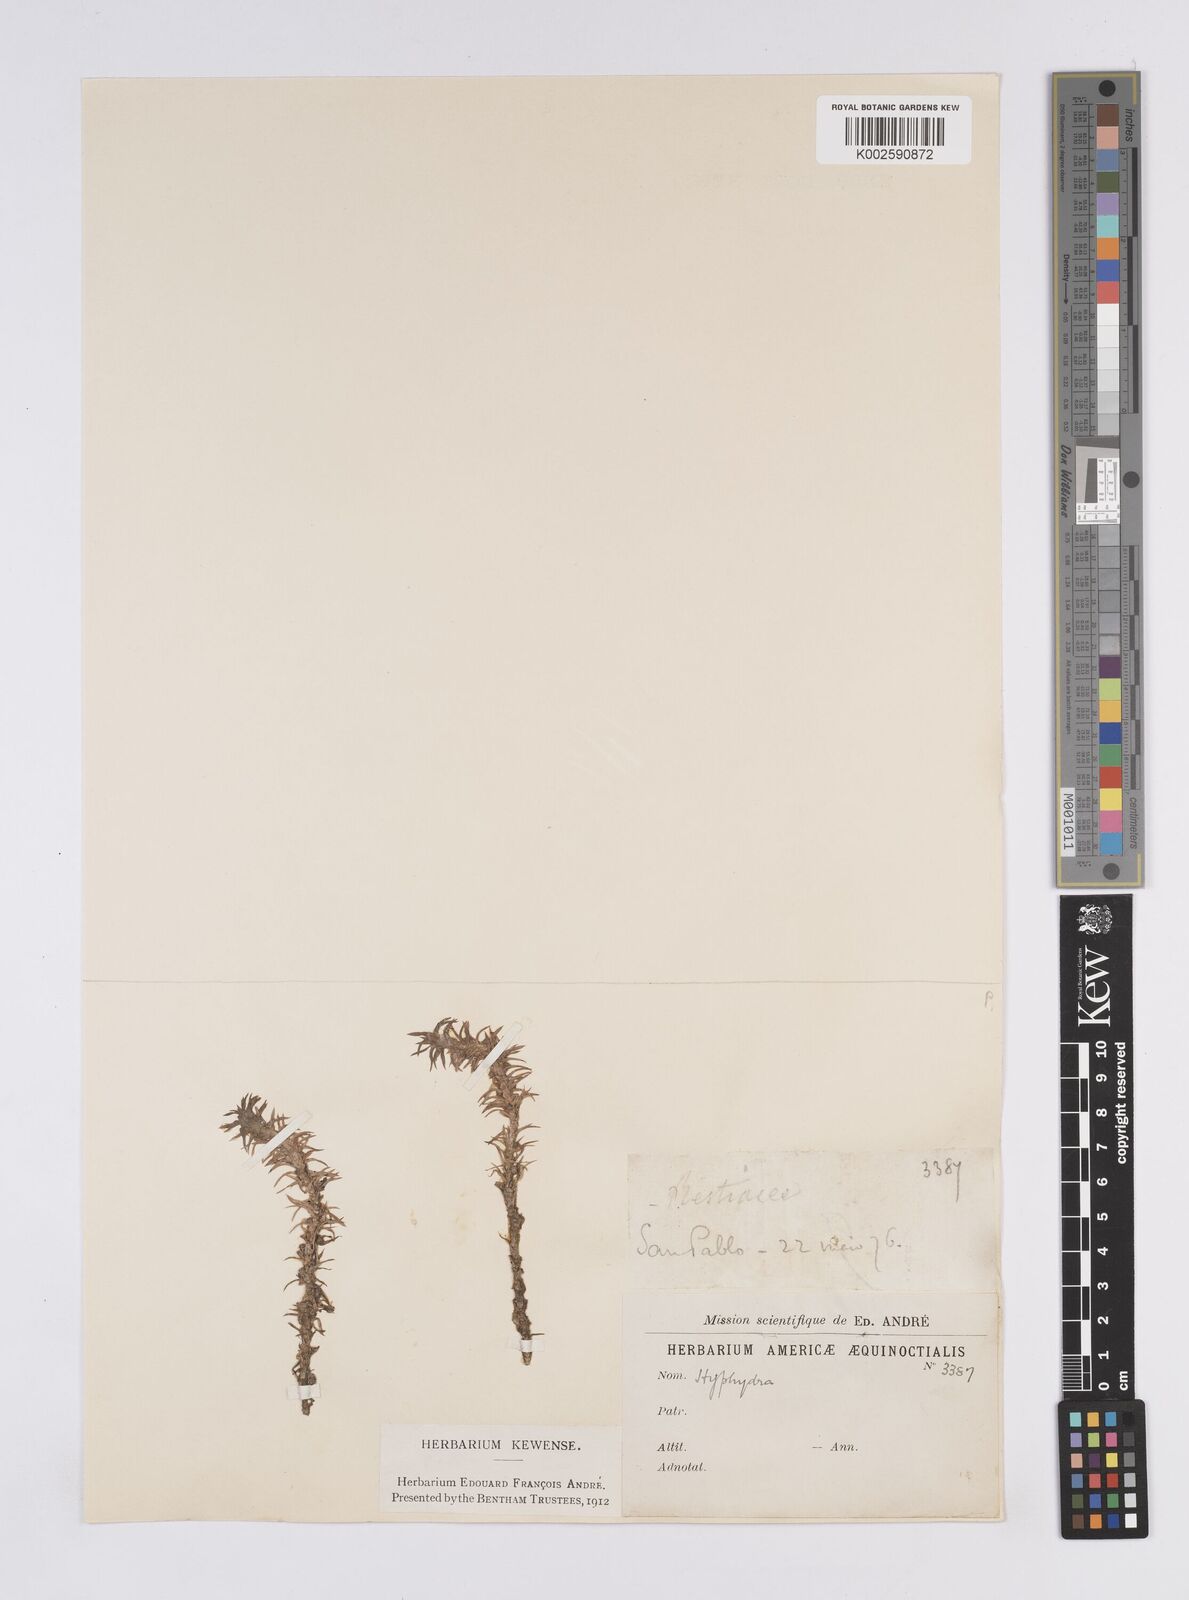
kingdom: Plantae
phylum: Tracheophyta
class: Liliopsida
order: Poales
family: Eriocaulaceae
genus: Paepalanthus
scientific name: Paepalanthus fluviatilis
